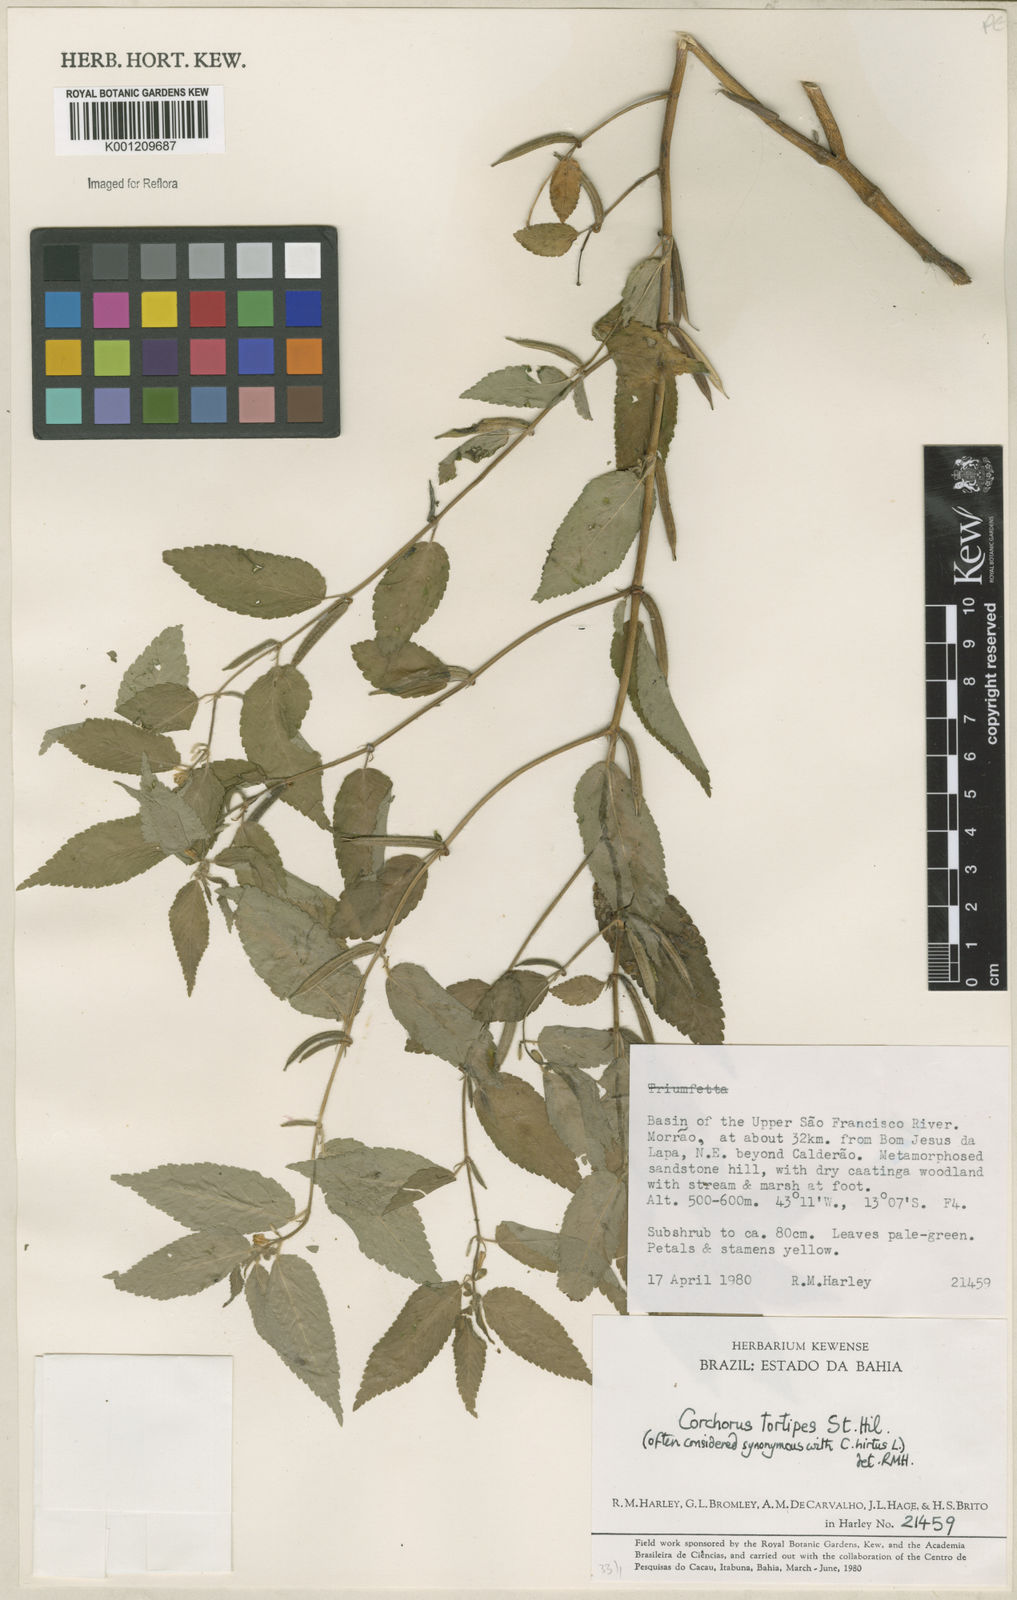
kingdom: Plantae
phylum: Tracheophyta
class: Magnoliopsida
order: Malvales
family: Malvaceae
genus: Corchorus
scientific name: Corchorus hirtus
